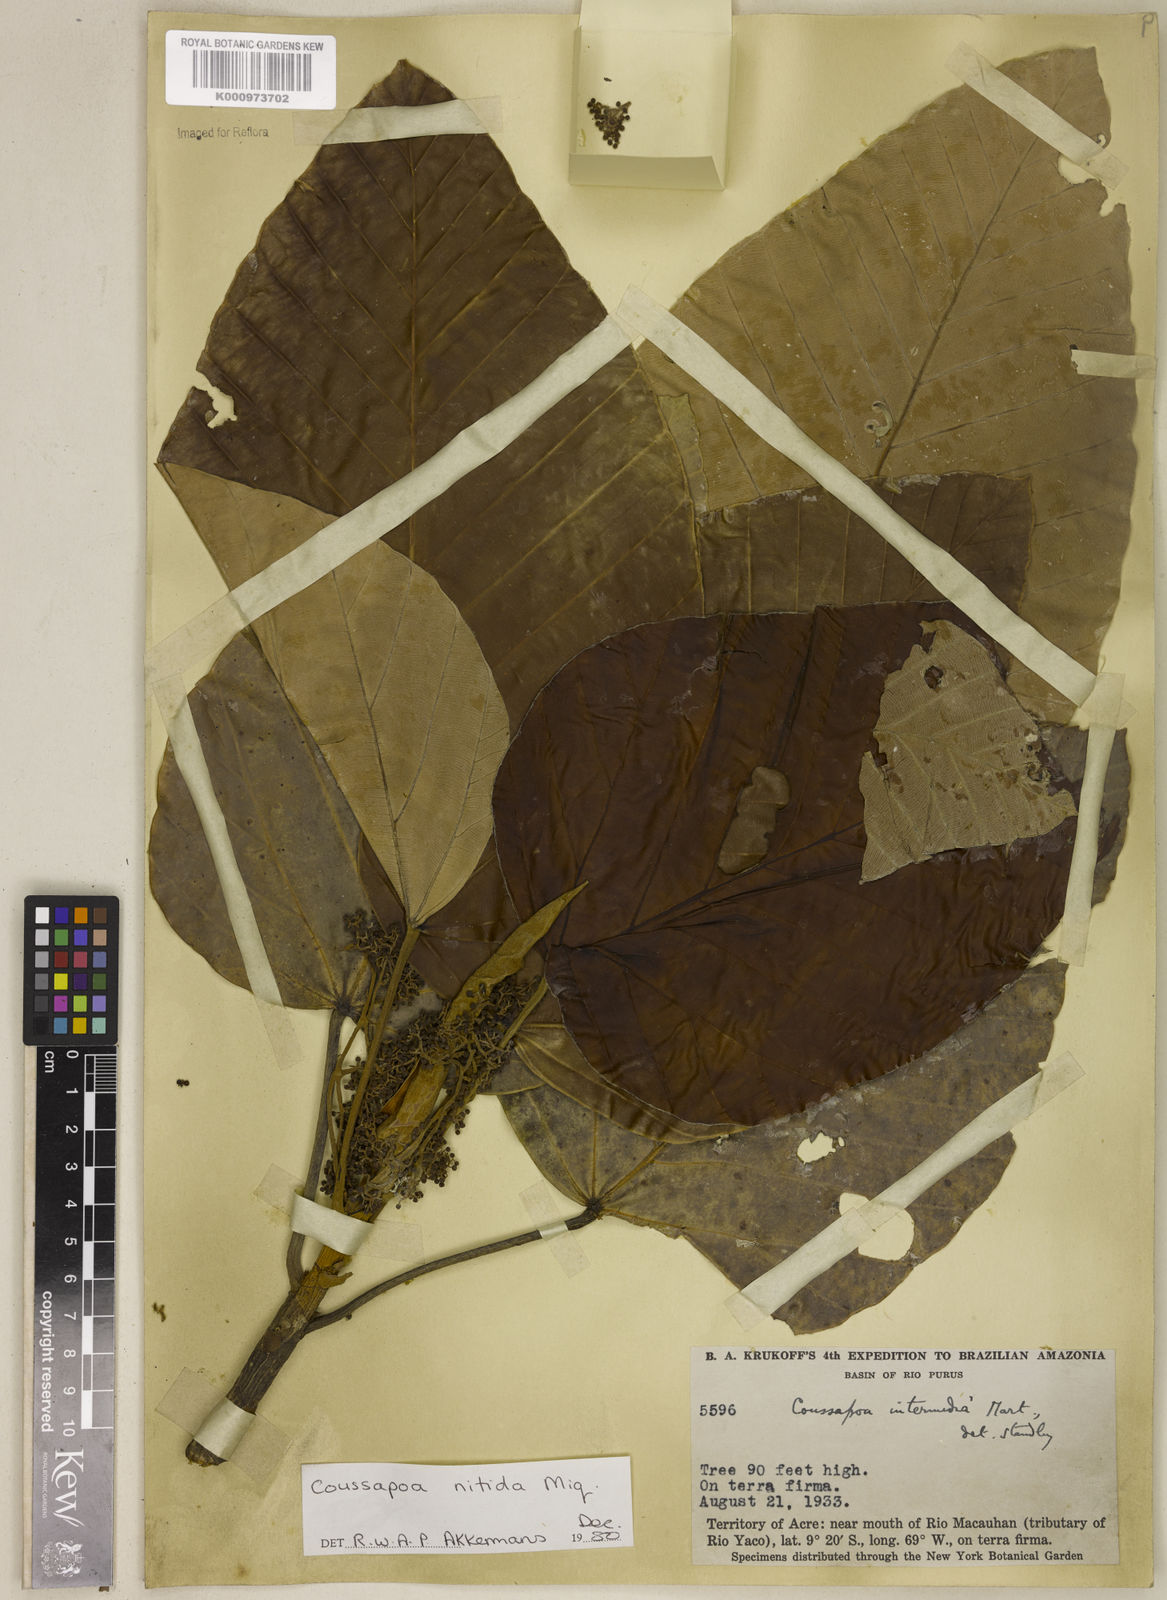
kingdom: Plantae
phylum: Tracheophyta
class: Magnoliopsida
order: Rosales
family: Urticaceae
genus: Coussapoa
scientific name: Coussapoa nitida
